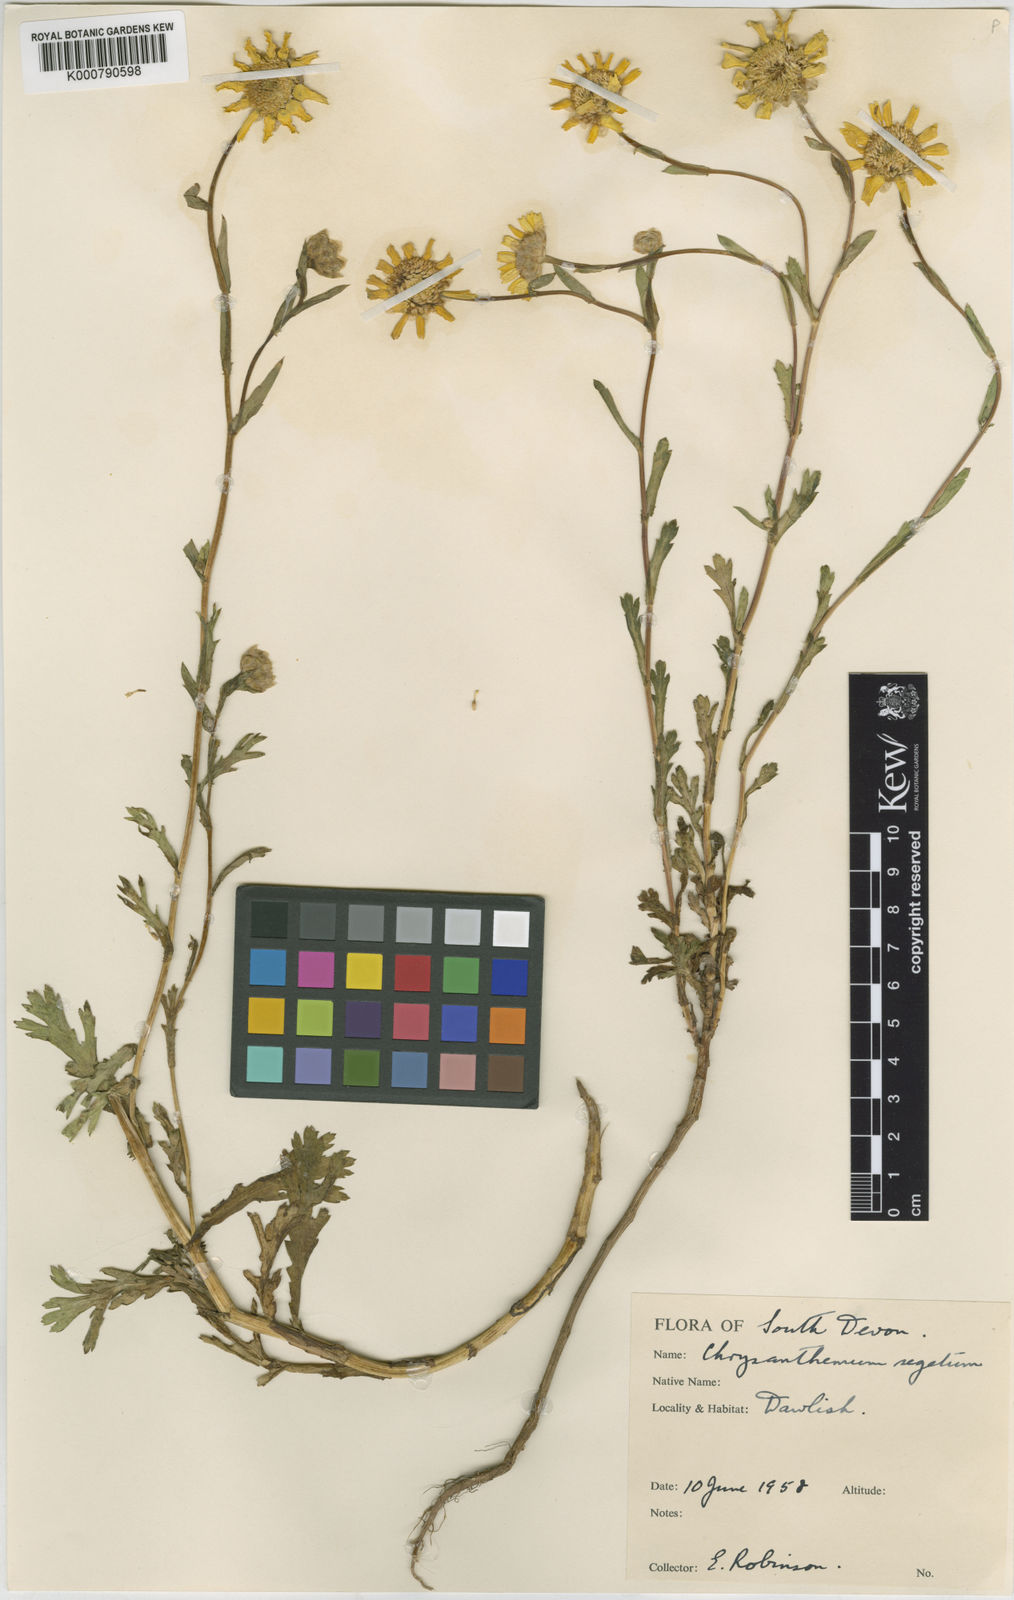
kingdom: Plantae
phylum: Tracheophyta
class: Magnoliopsida
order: Asterales
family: Asteraceae
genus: Glebionis
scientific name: Glebionis
